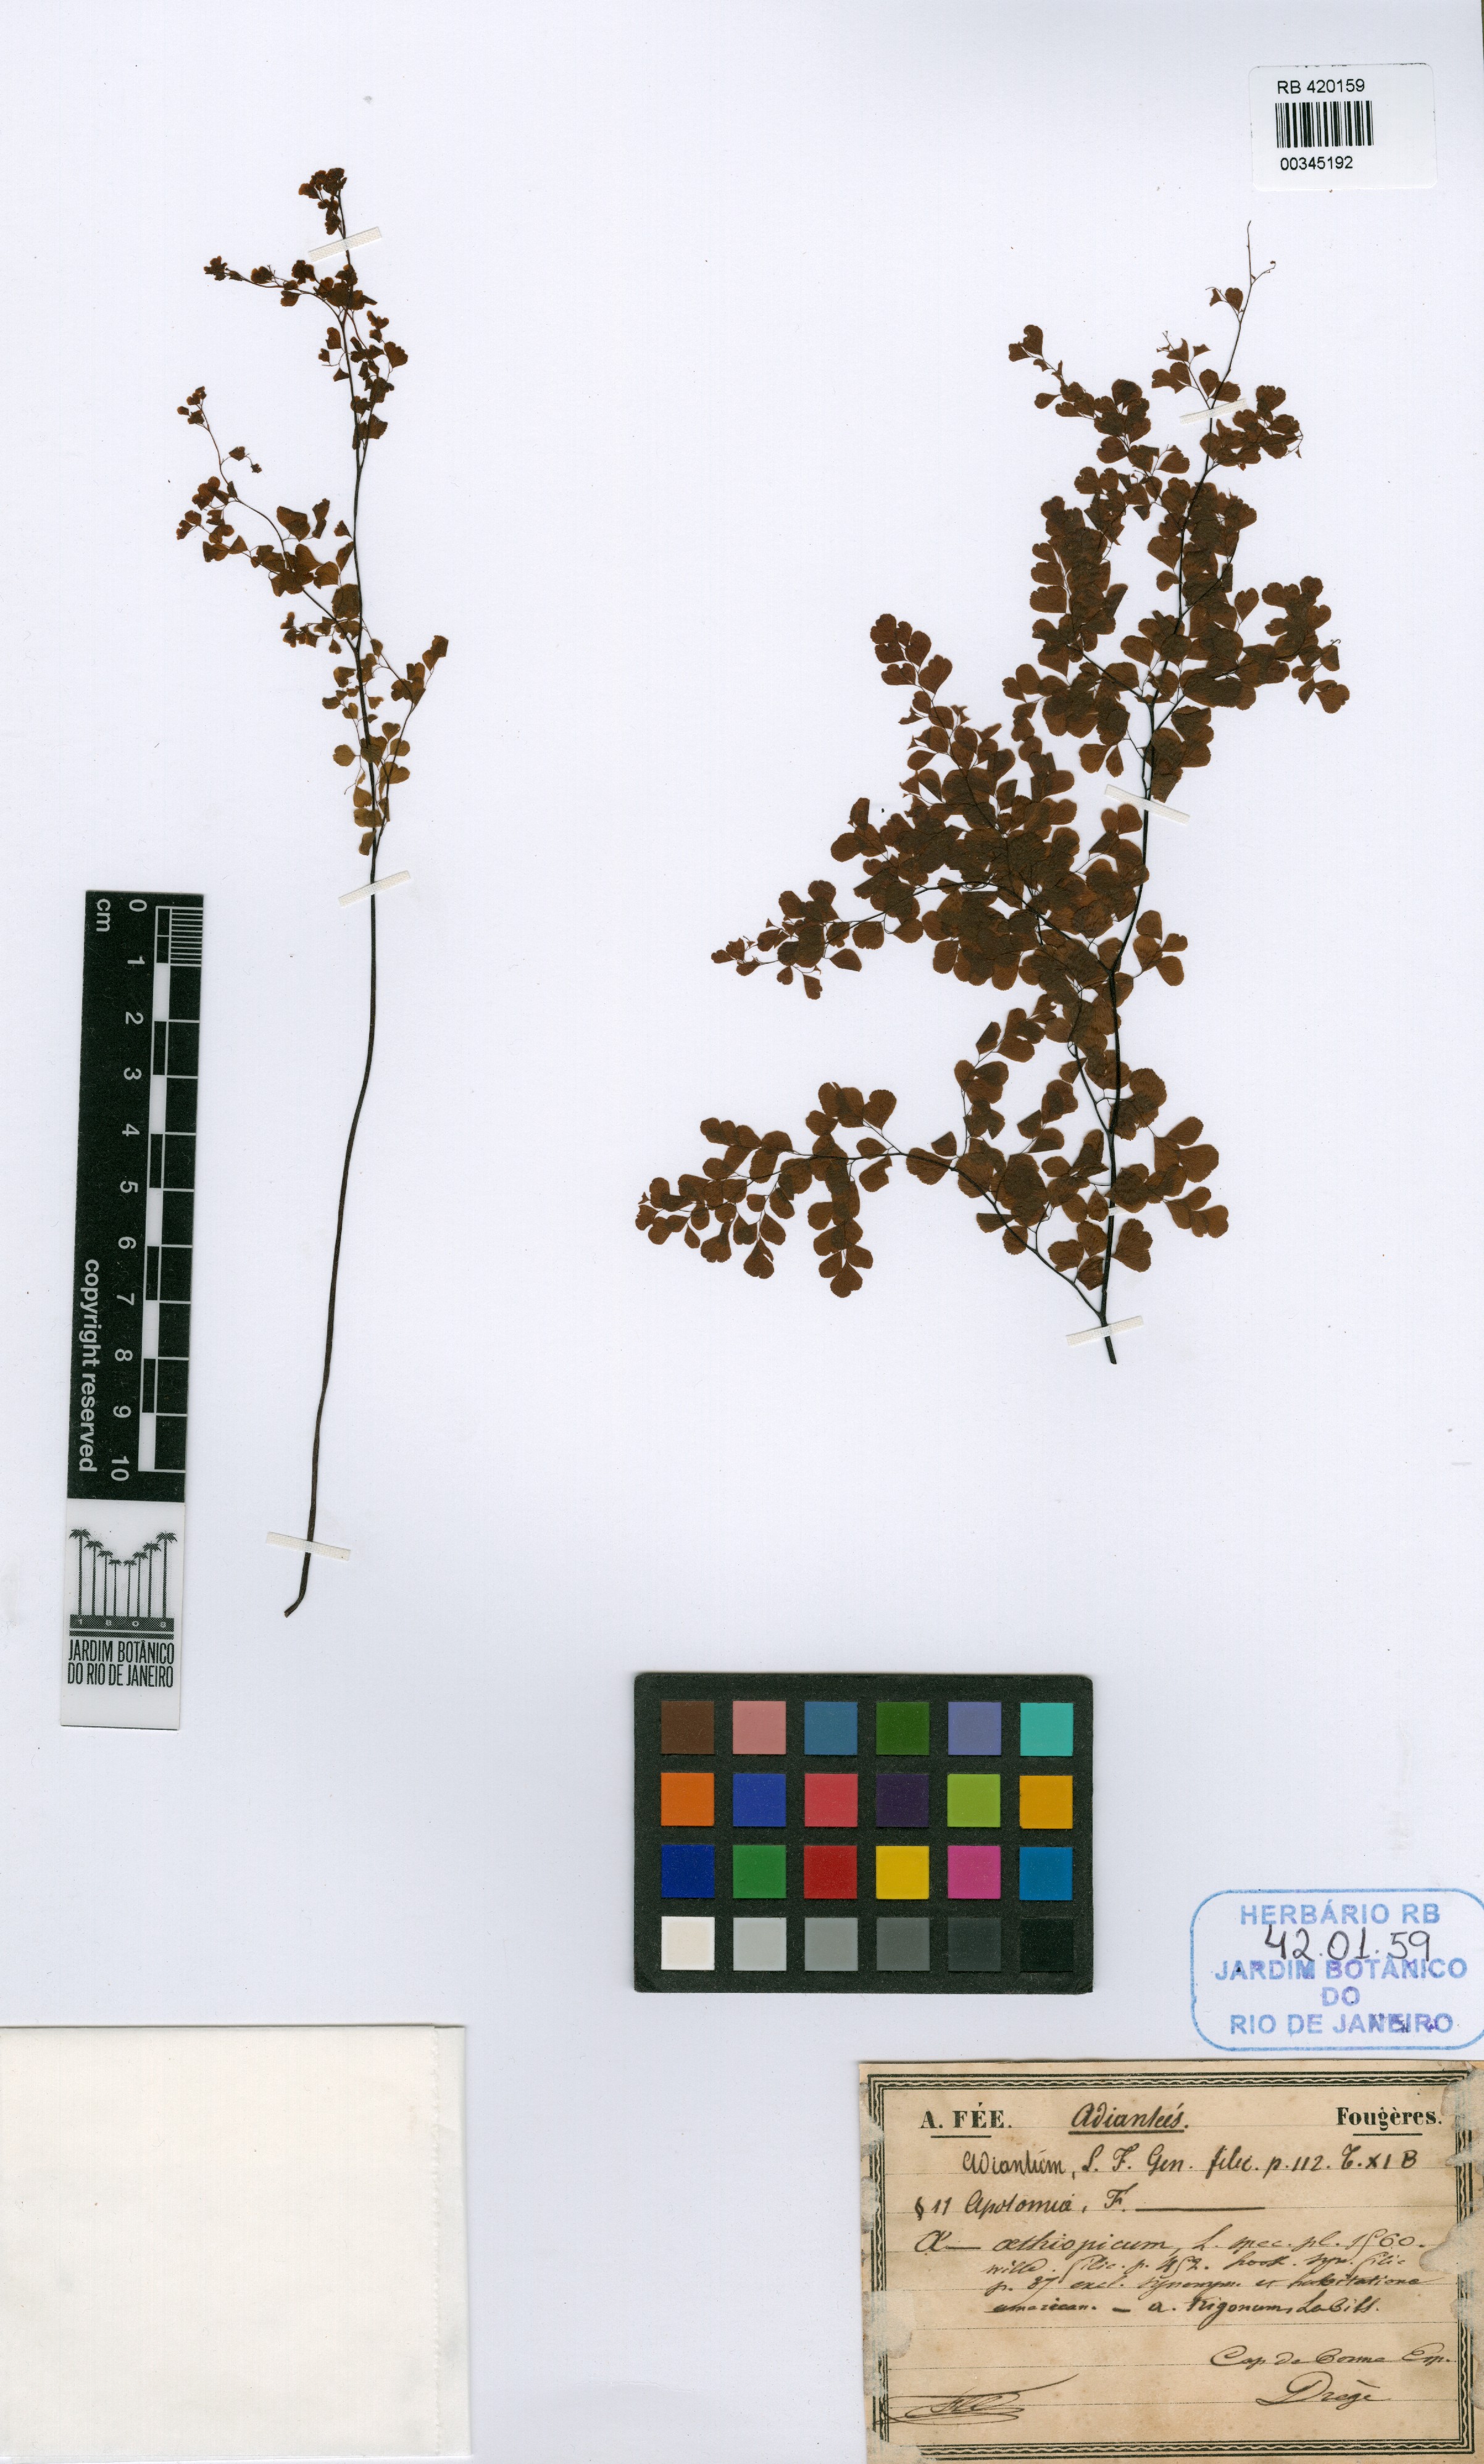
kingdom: Plantae
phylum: Tracheophyta
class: Polypodiopsida
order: Polypodiales
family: Pteridaceae
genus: Adiantum
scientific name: Adiantum aethiopicum
